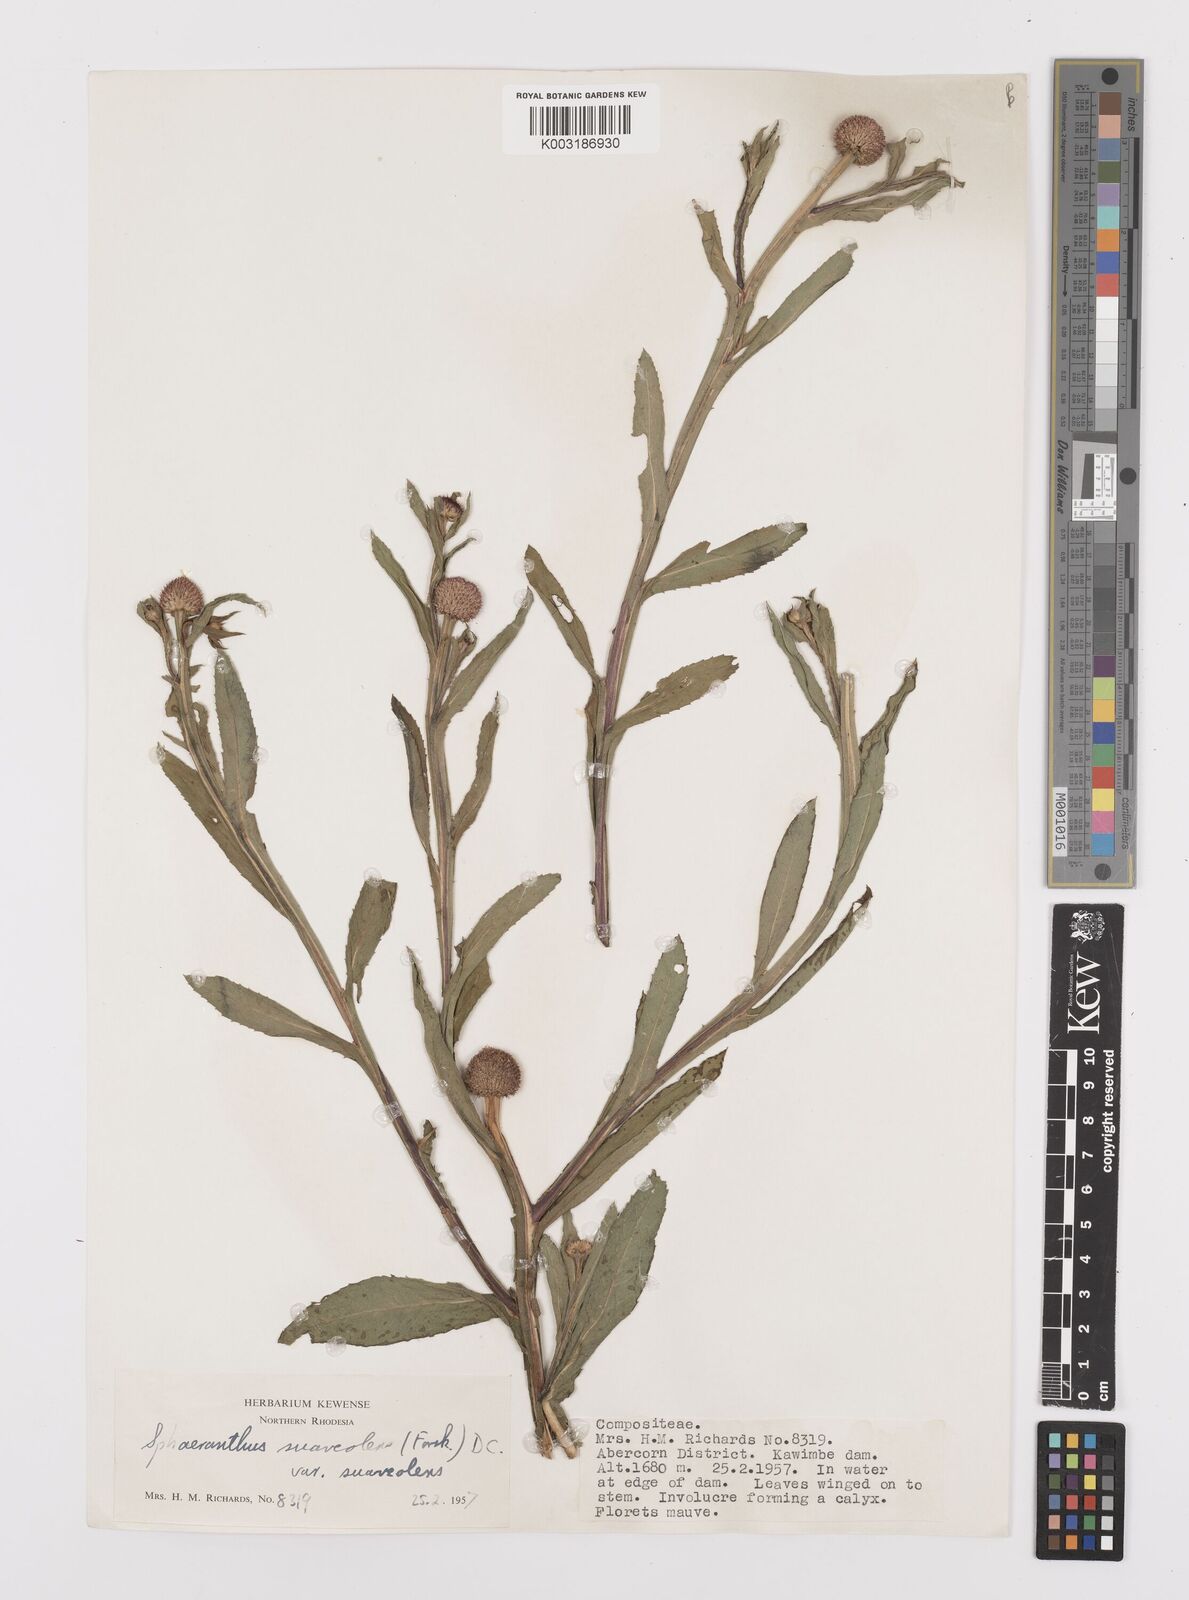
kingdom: Plantae
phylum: Tracheophyta
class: Magnoliopsida
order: Asterales
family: Asteraceae
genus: Sphaeranthus
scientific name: Sphaeranthus suaveolens
